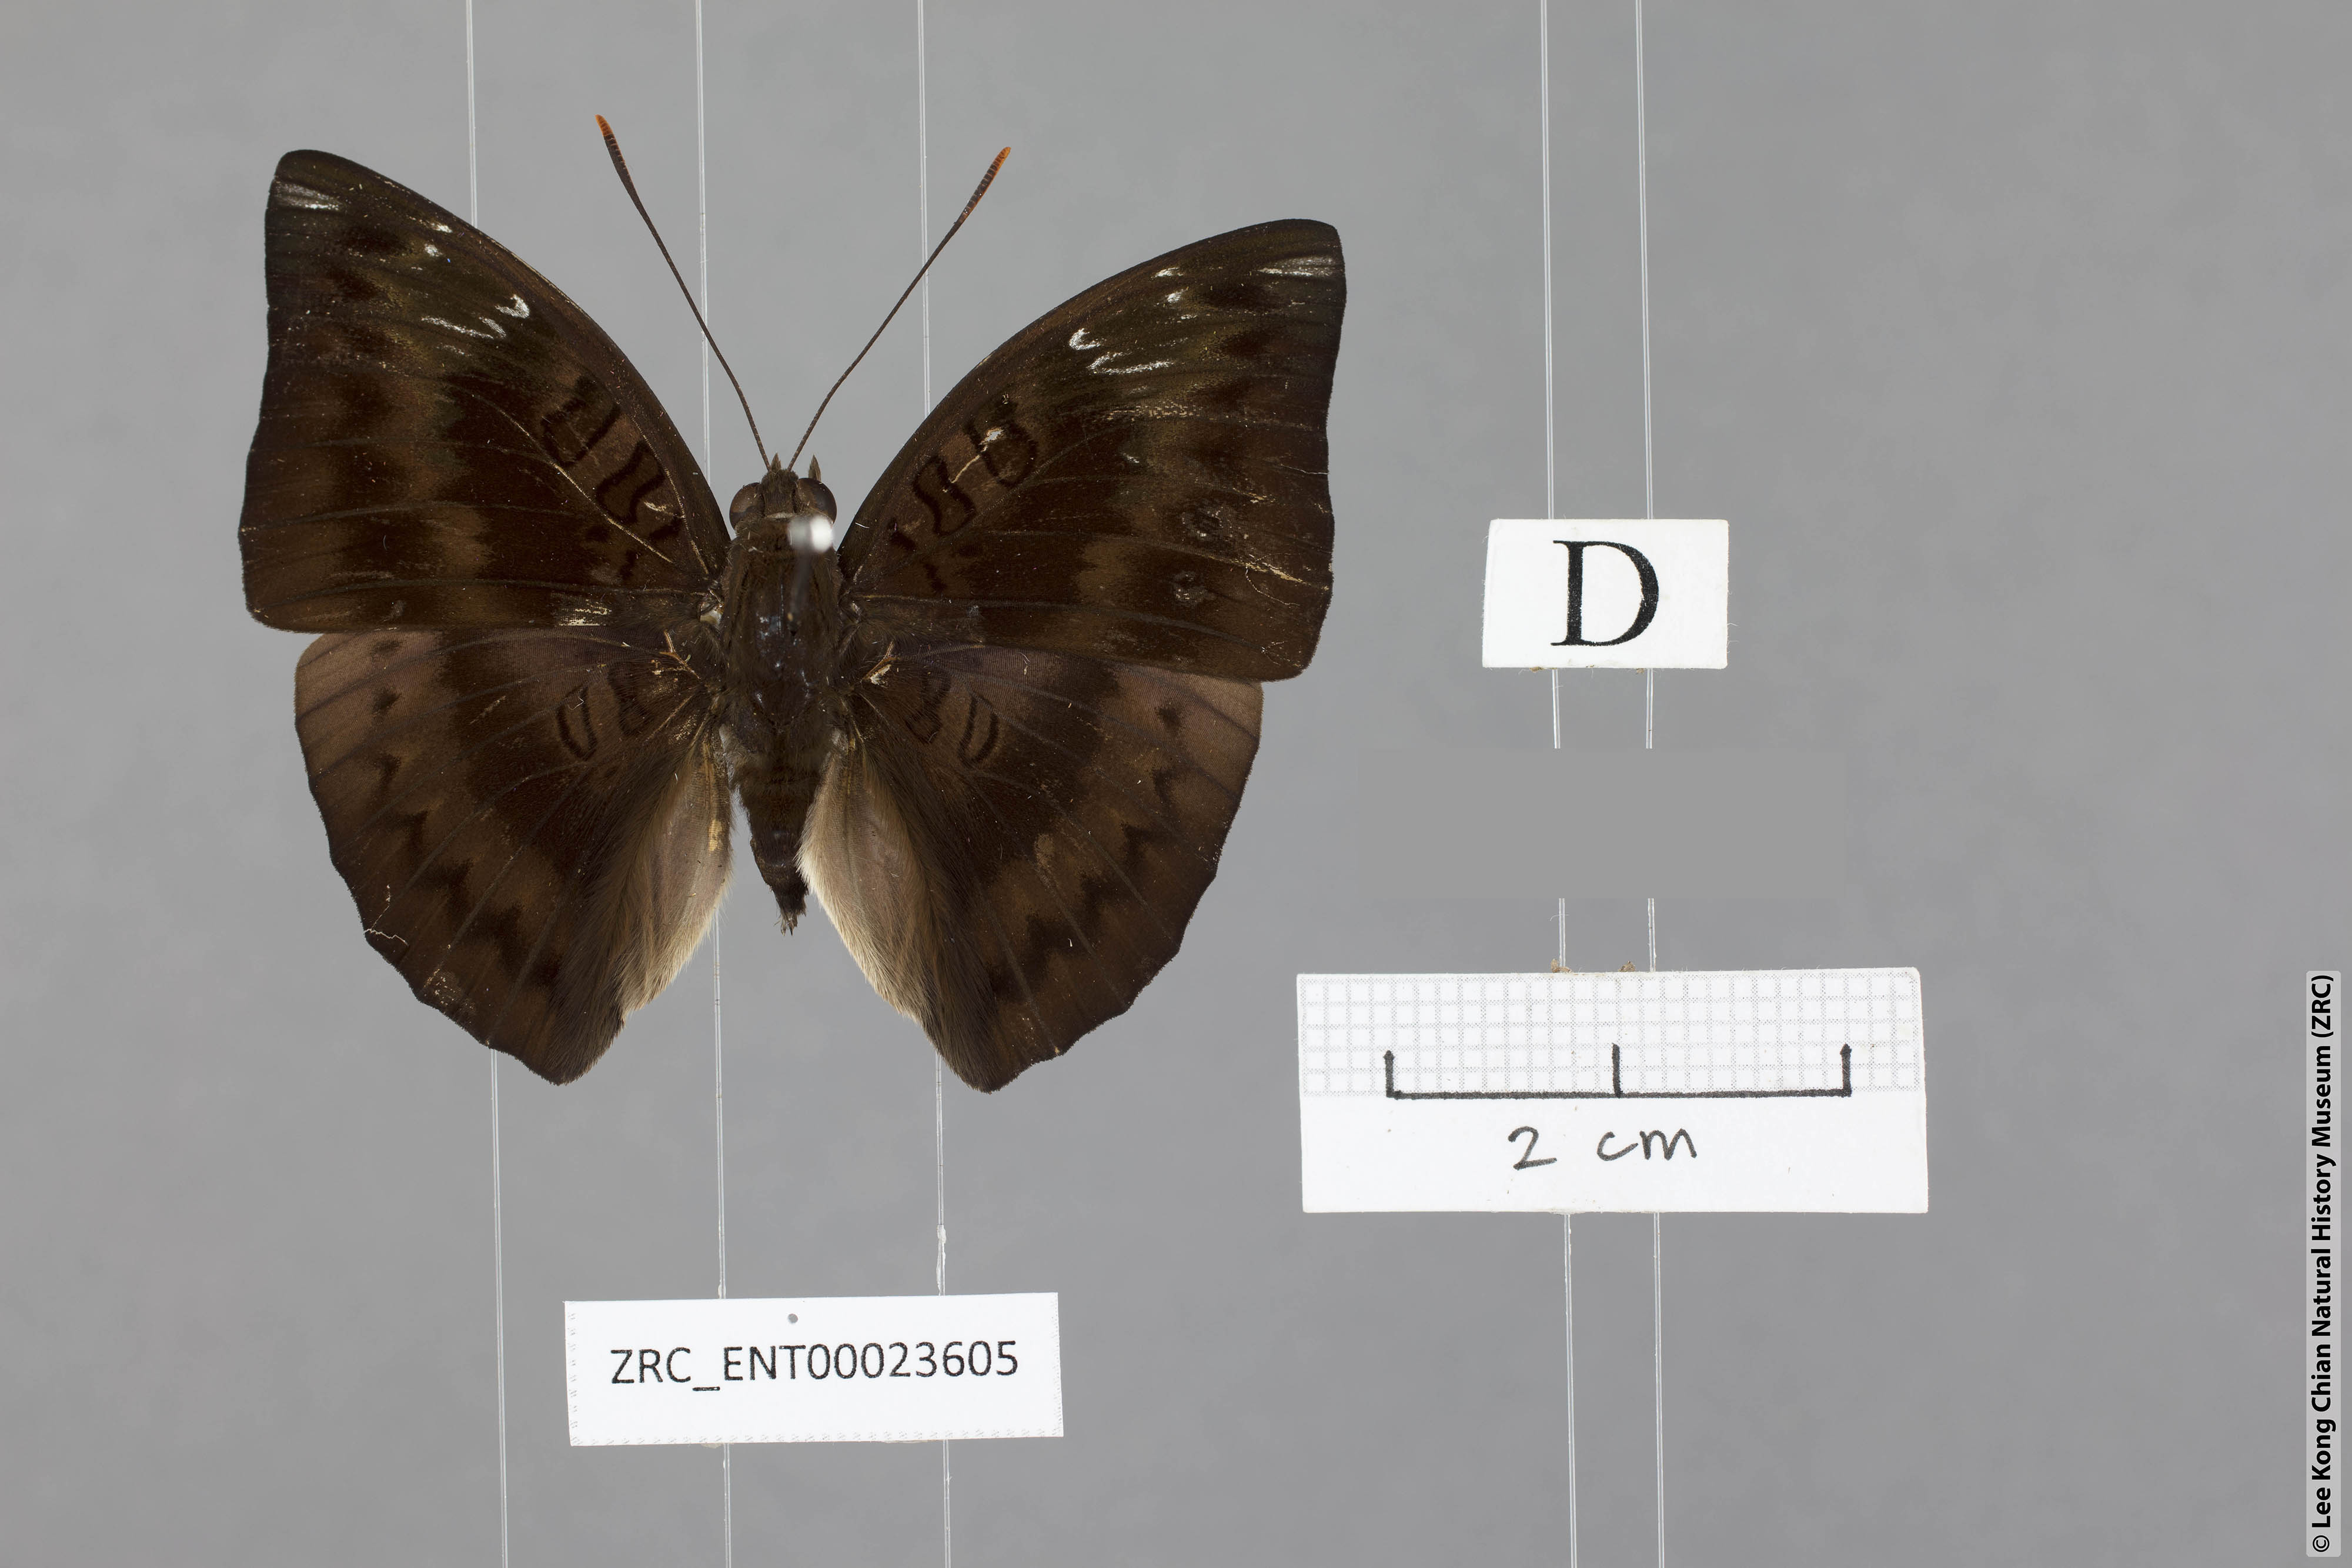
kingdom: Animalia
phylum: Arthropoda
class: Insecta
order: Lepidoptera
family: Nymphalidae
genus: Euthalia
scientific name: Euthalia alpheda
